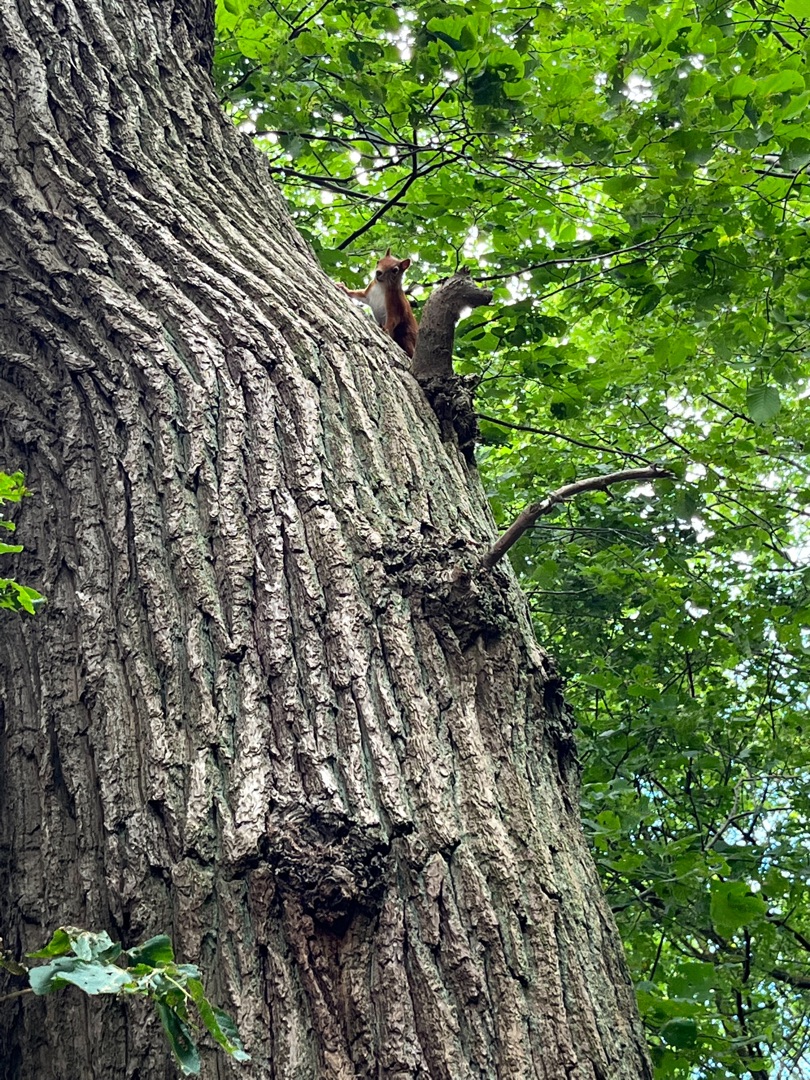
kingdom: Animalia
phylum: Chordata
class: Mammalia
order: Rodentia
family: Sciuridae
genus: Sciurus
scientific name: Sciurus vulgaris
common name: Egern
